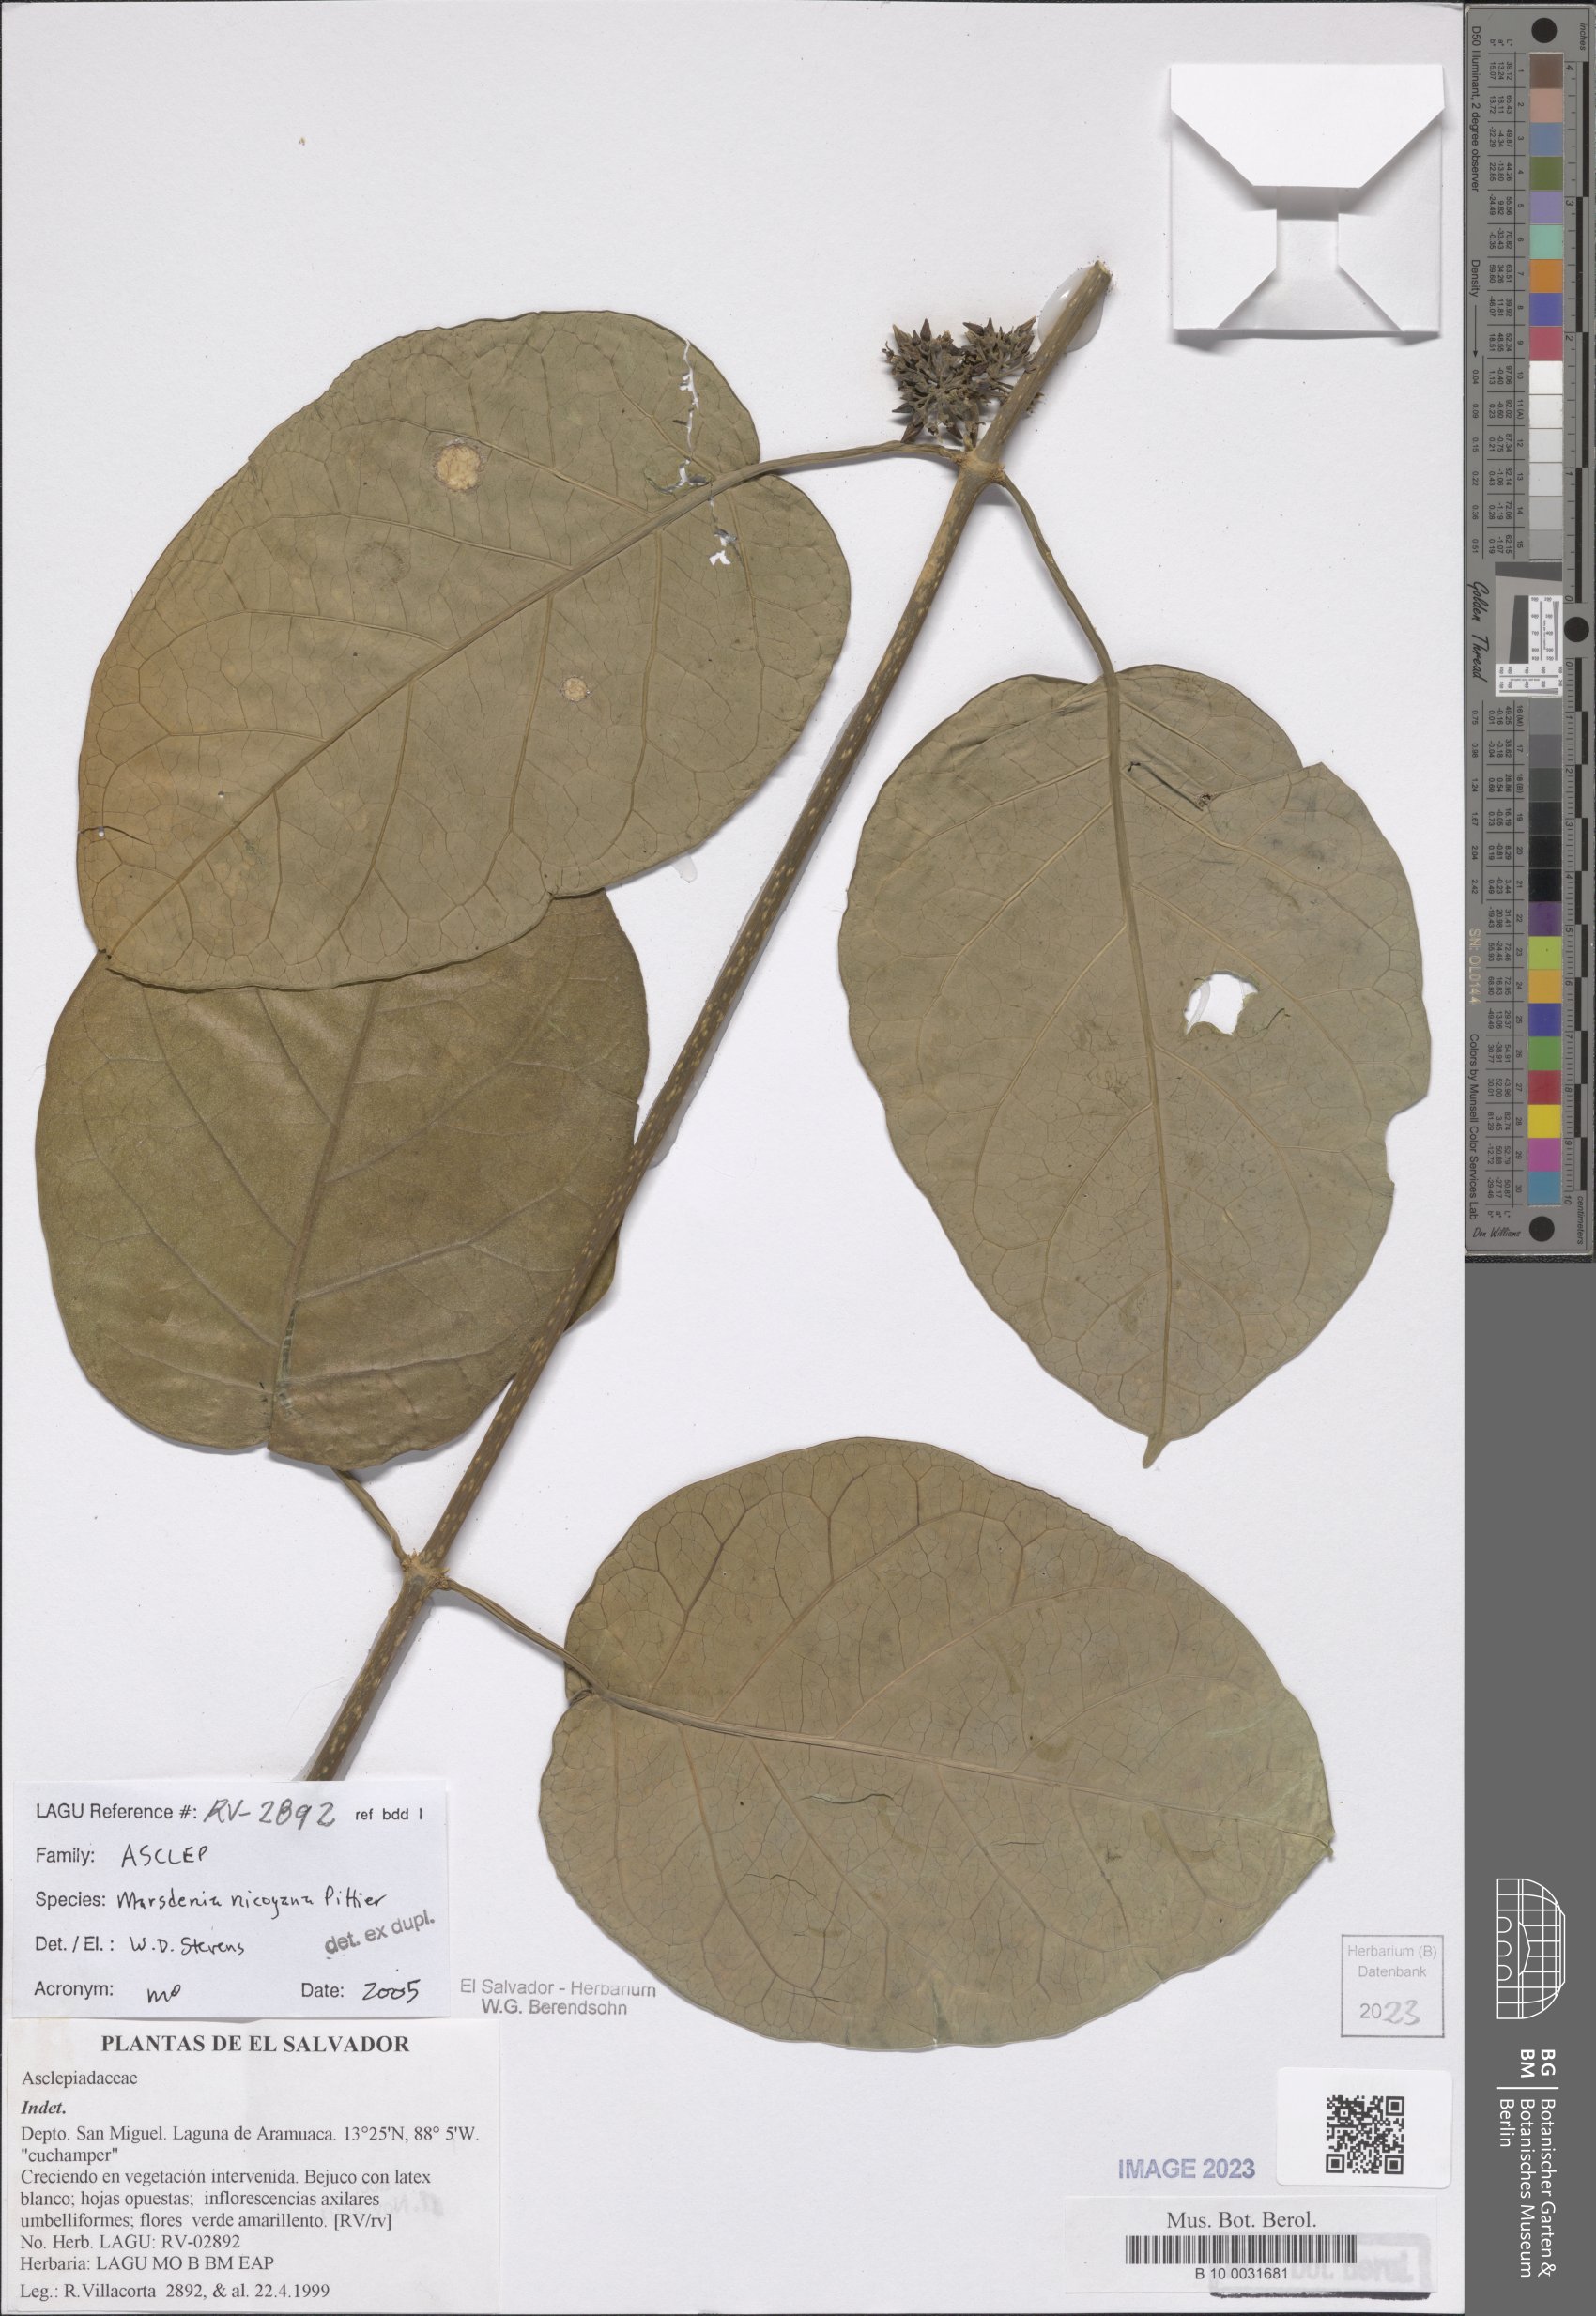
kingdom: Plantae
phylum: Tracheophyta
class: Magnoliopsida
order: Gentianales
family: Apocynaceae
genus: Ruehssia
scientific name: Ruehssia nicoyana
